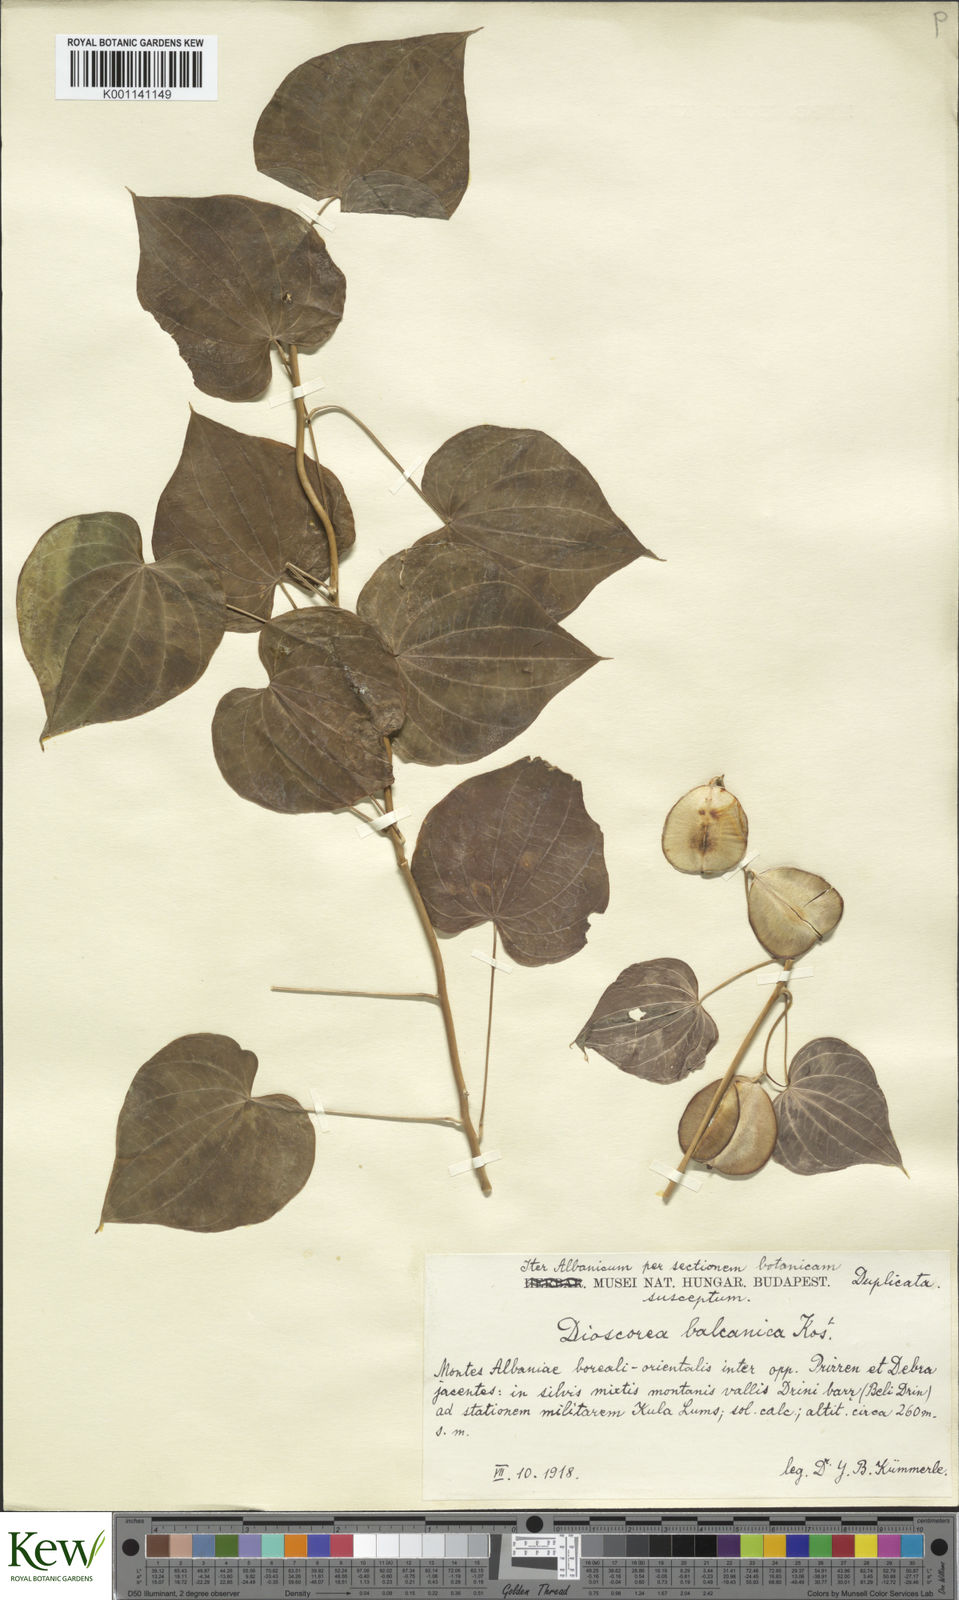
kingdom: Plantae
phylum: Tracheophyta
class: Liliopsida
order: Dioscoreales
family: Dioscoreaceae
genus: Dioscorea
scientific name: Dioscorea
